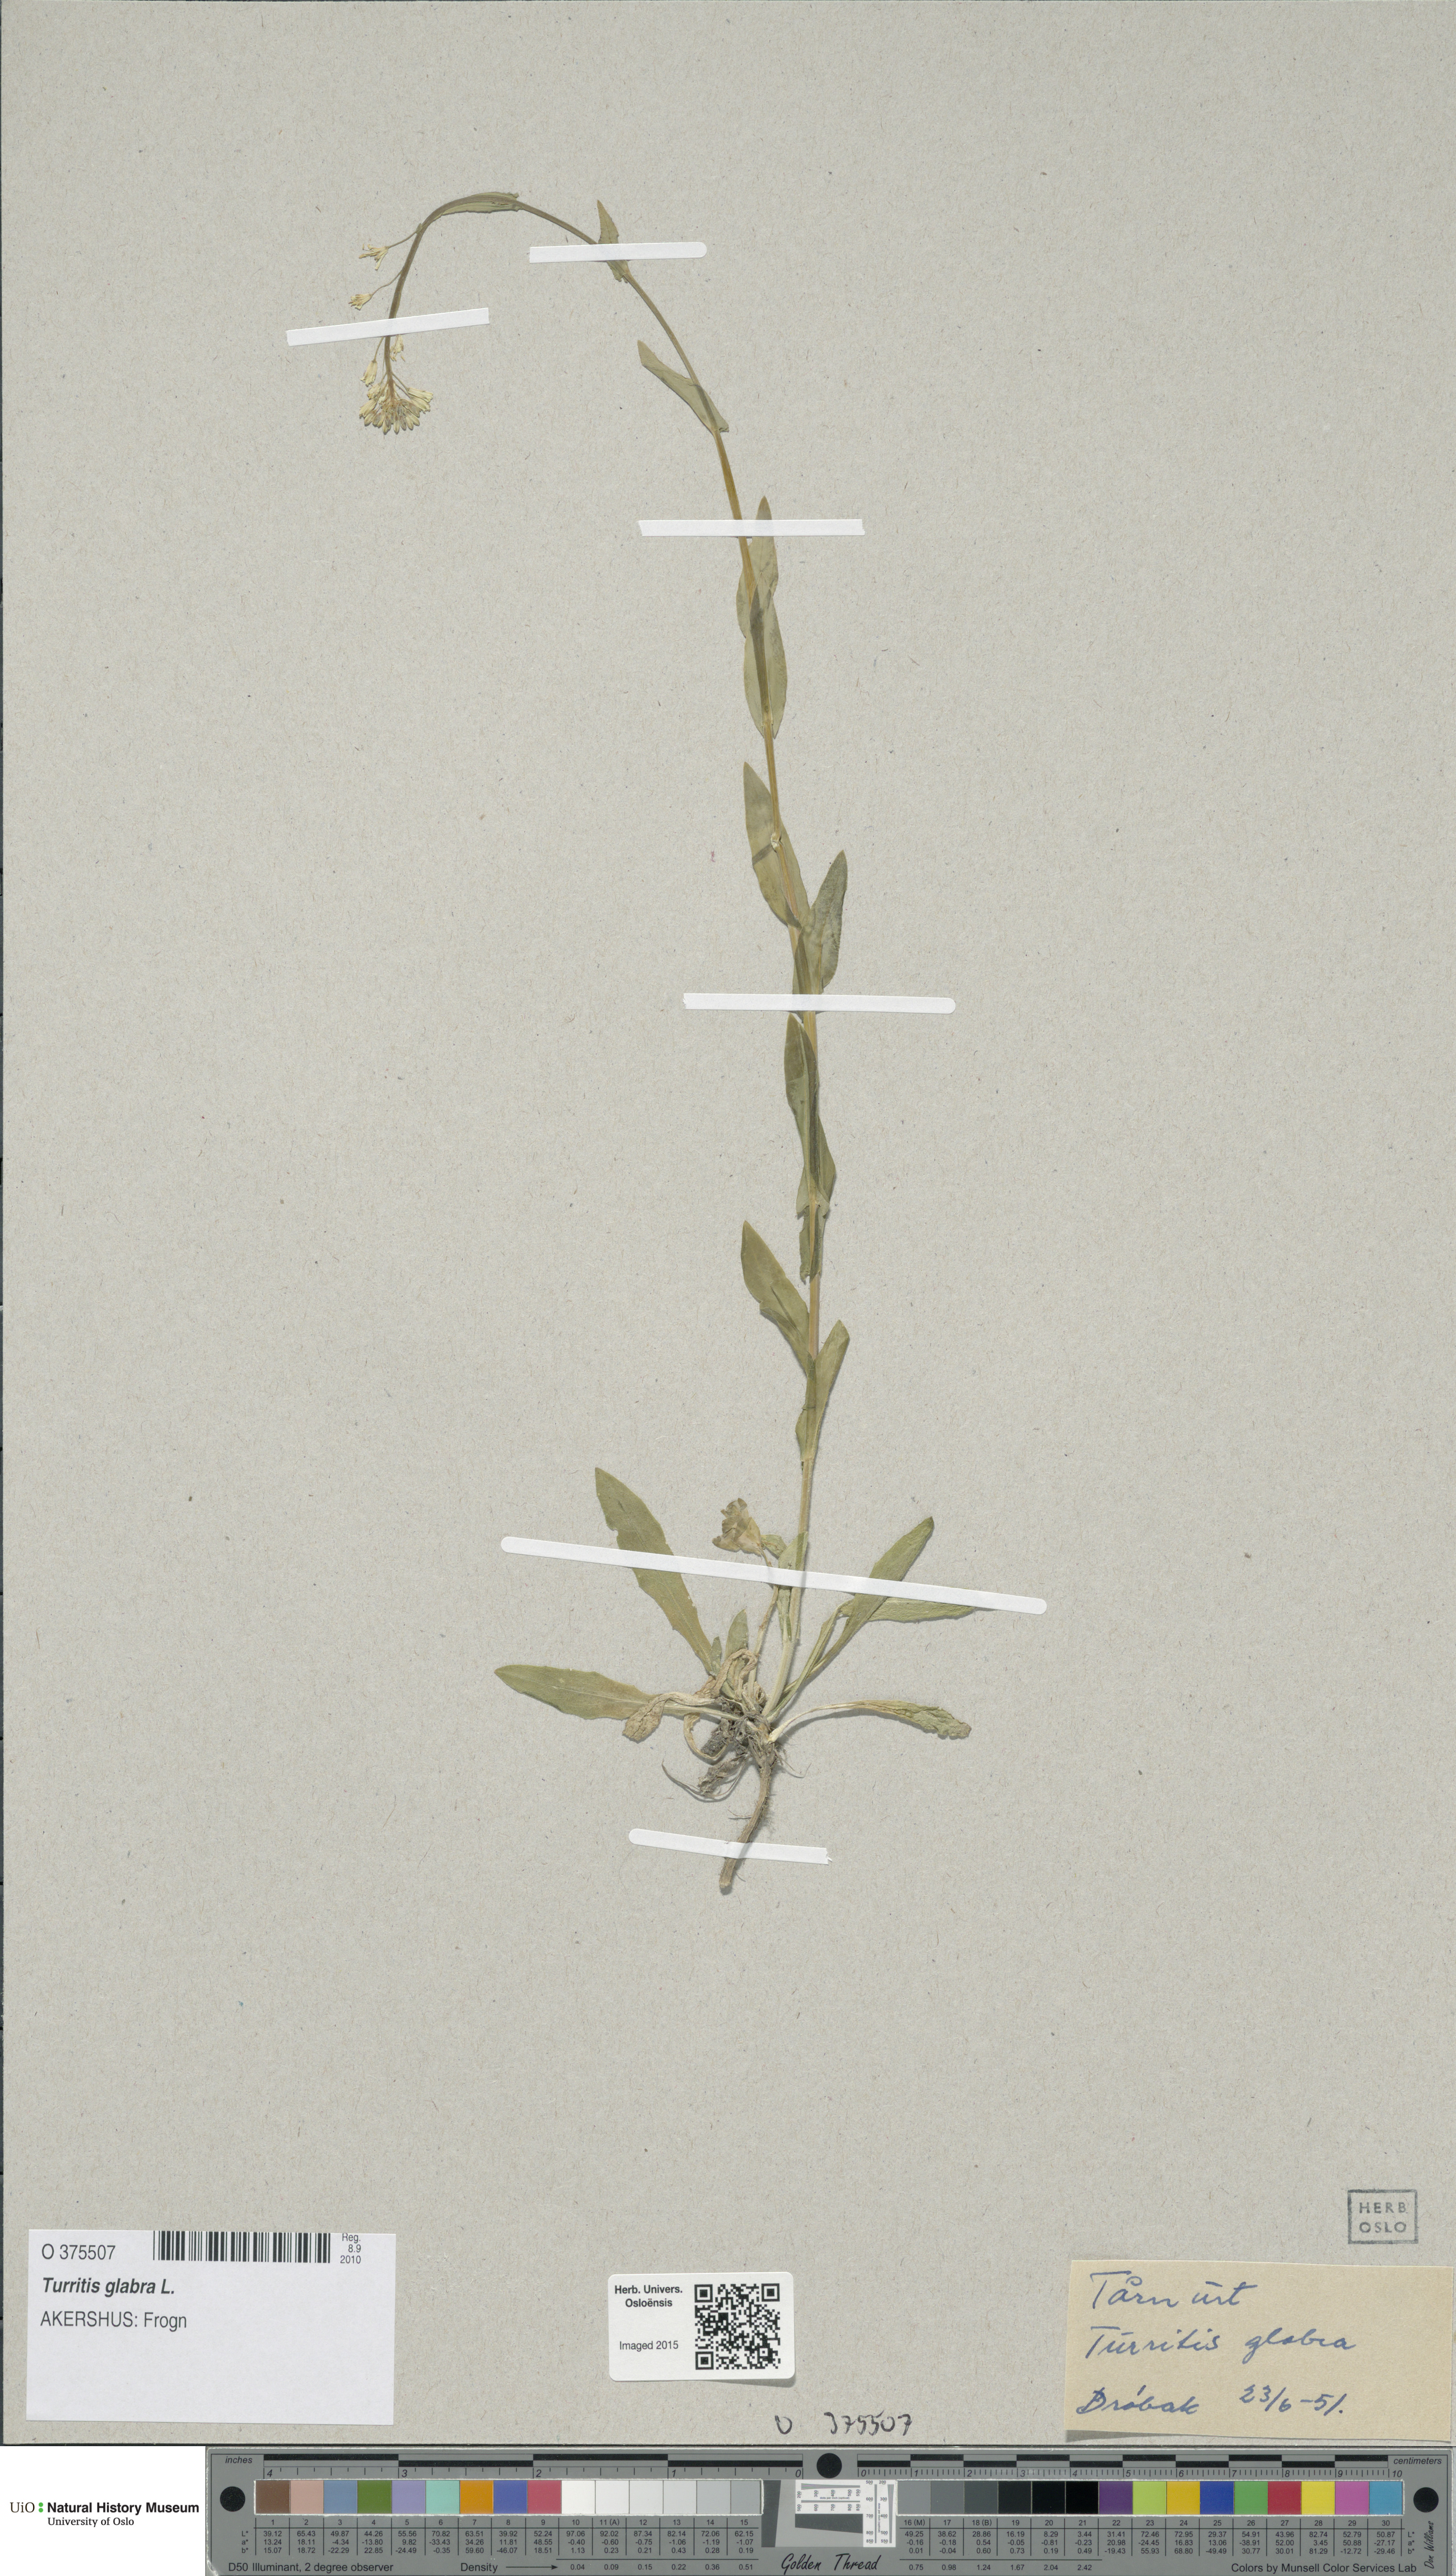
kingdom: Plantae
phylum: Tracheophyta
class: Magnoliopsida
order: Brassicales
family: Brassicaceae
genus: Turritis
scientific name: Turritis glabra
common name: Tower rockcress
